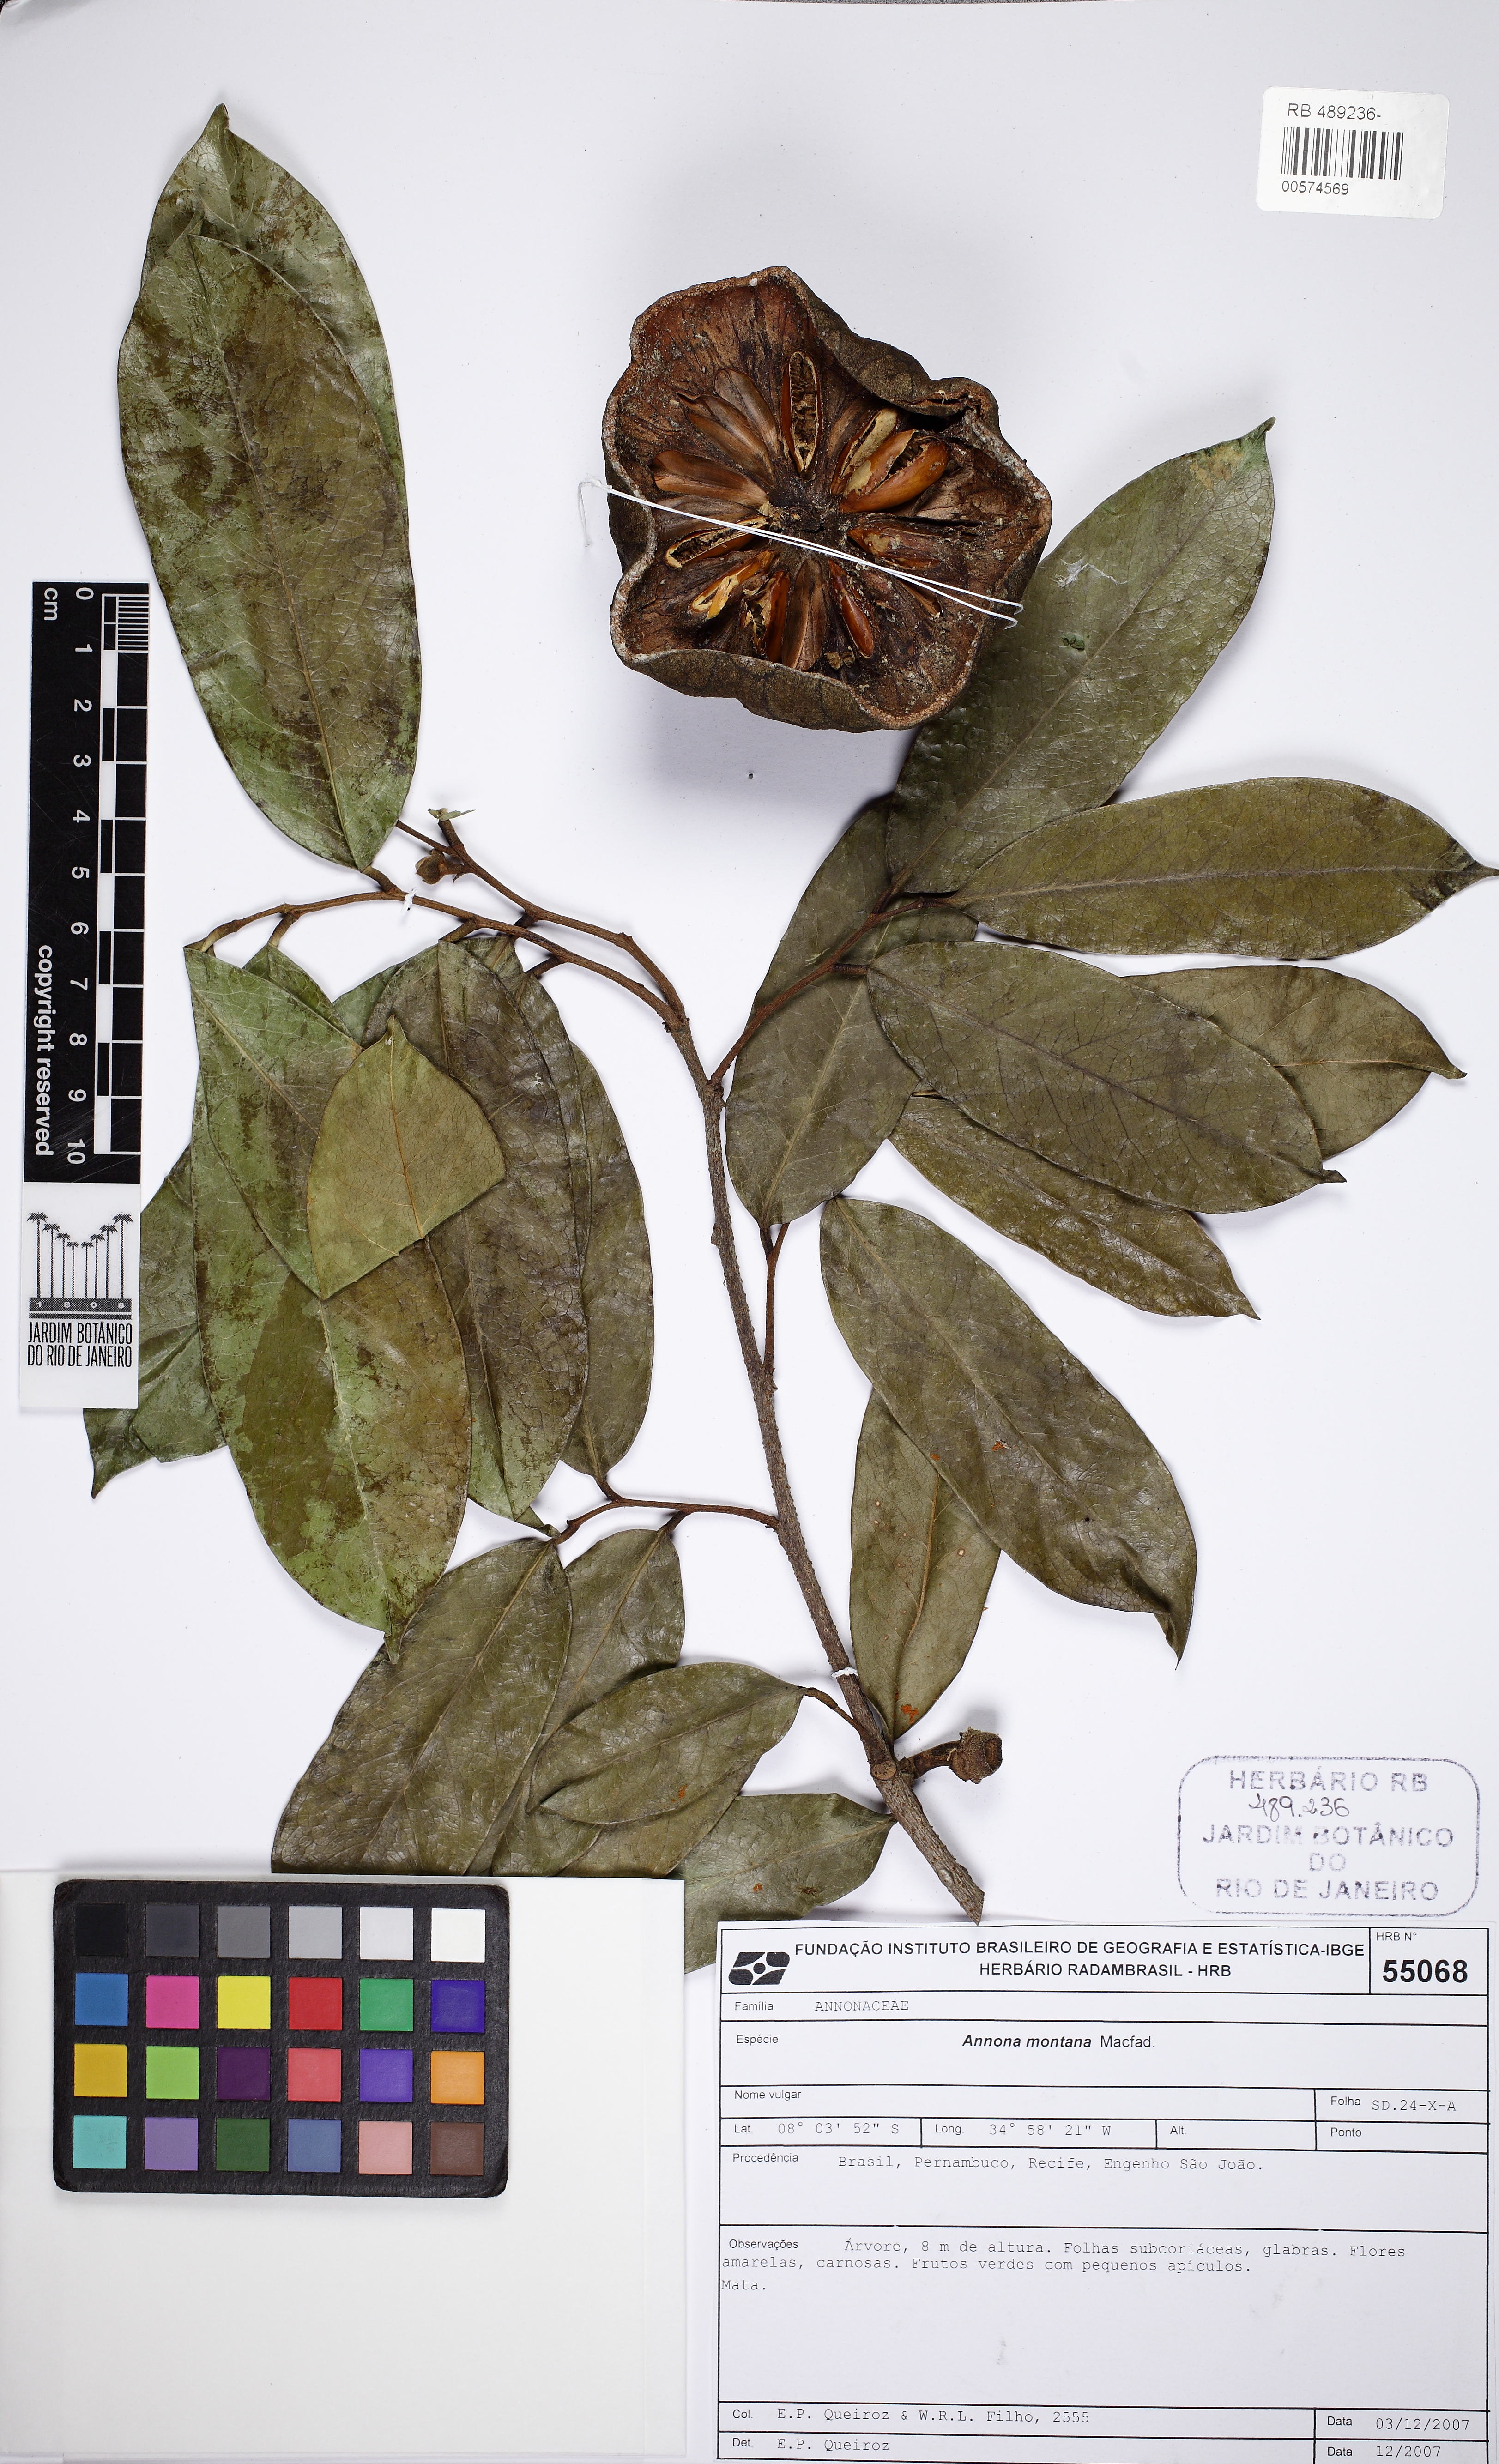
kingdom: Plantae
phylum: Tracheophyta
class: Magnoliopsida
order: Magnoliales
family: Annonaceae
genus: Annona
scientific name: Annona montana
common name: Mountain soursop
